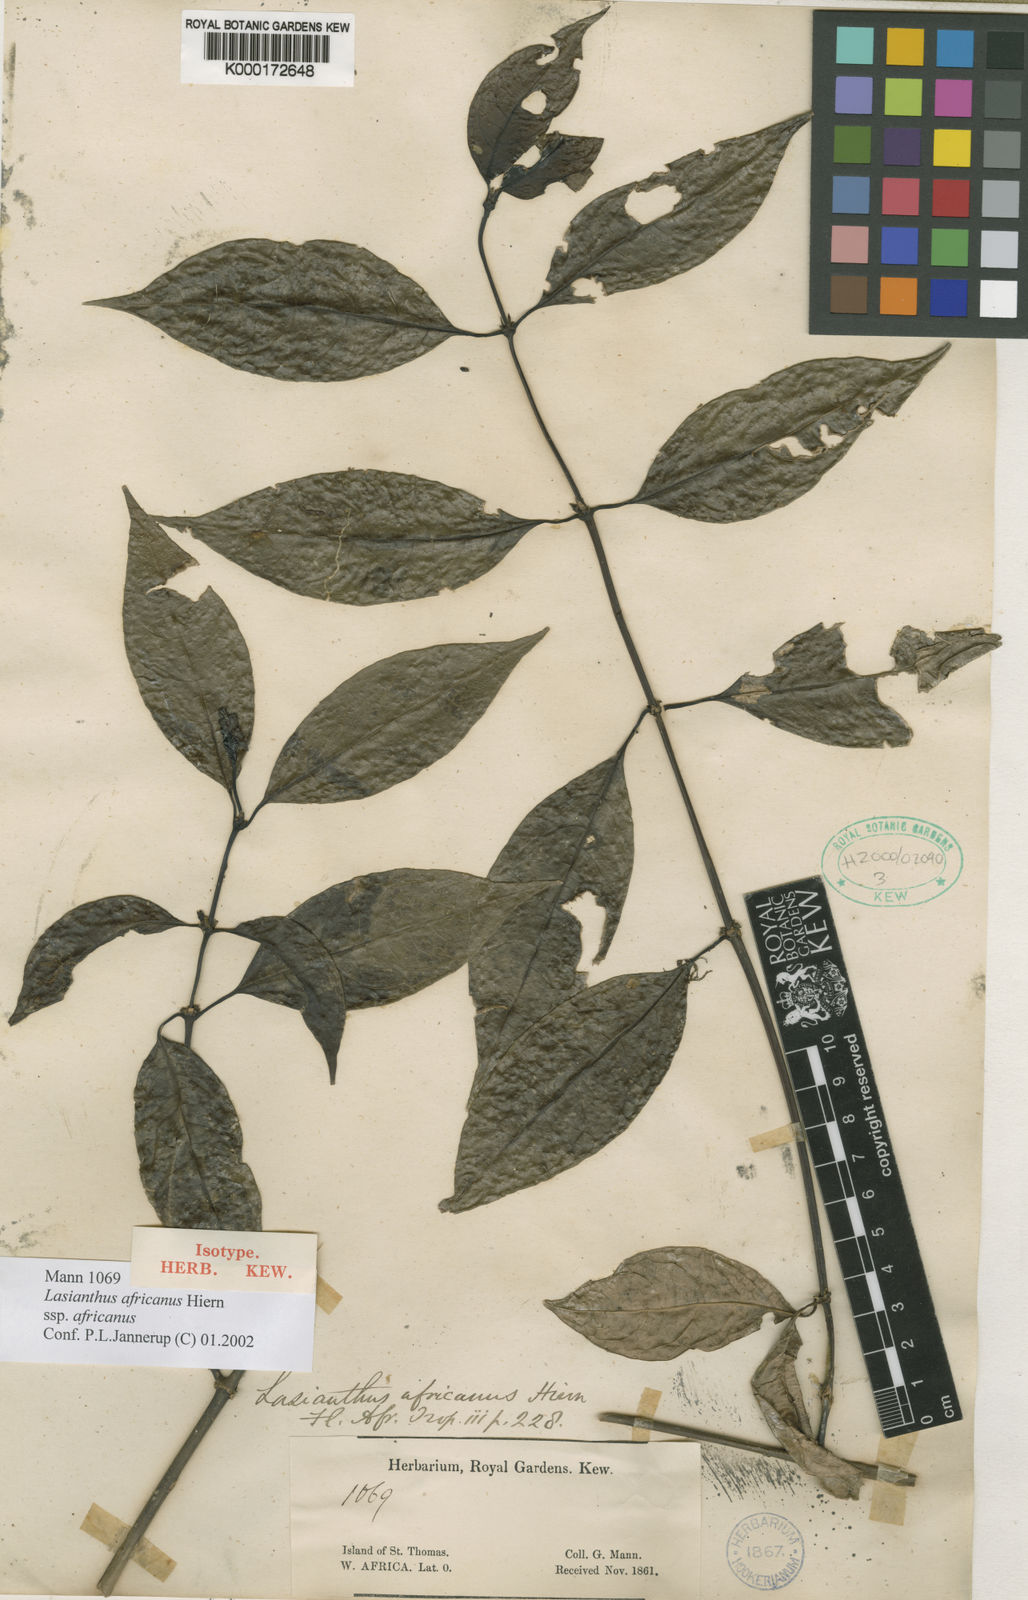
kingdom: Plantae
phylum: Tracheophyta
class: Magnoliopsida
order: Gentianales
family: Rubiaceae
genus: Lasianthus
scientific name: Lasianthus africanus
